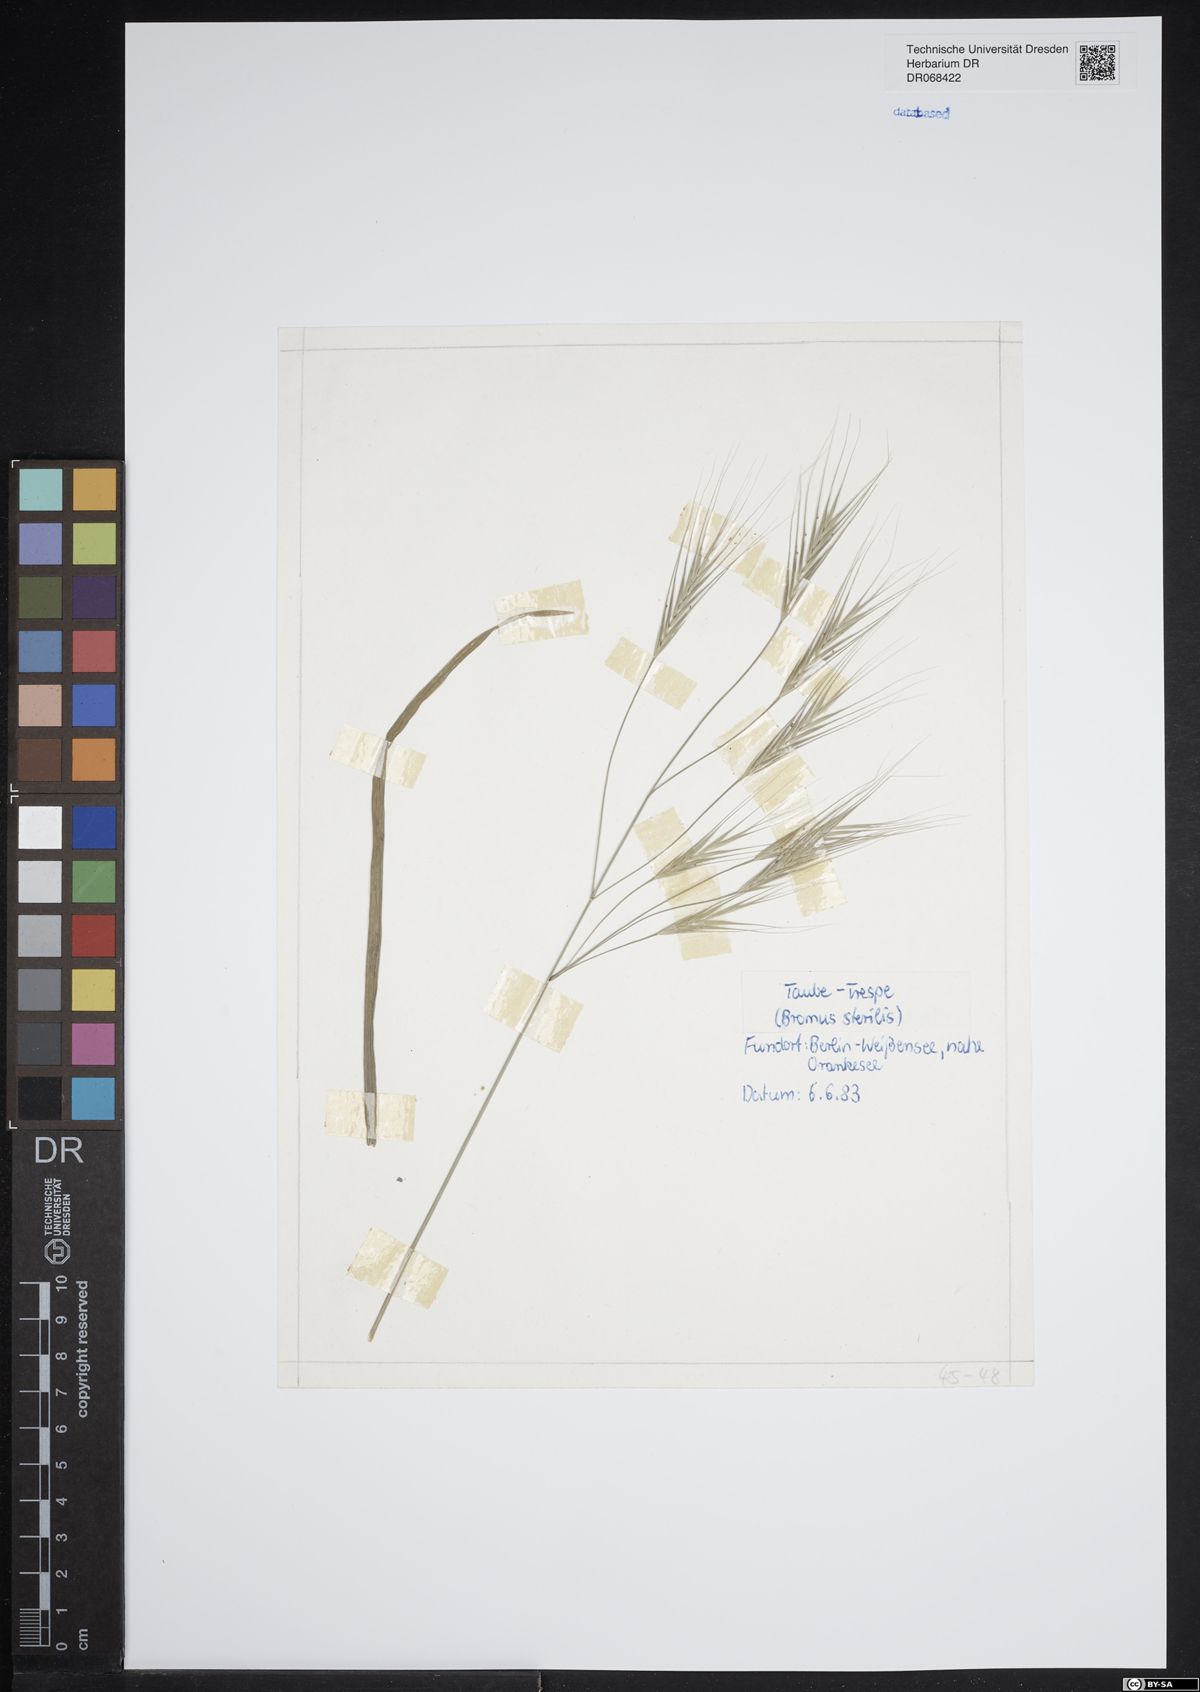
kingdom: Plantae
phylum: Tracheophyta
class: Liliopsida
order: Poales
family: Poaceae
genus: Bromus
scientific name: Bromus sterilis
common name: Poverty brome
